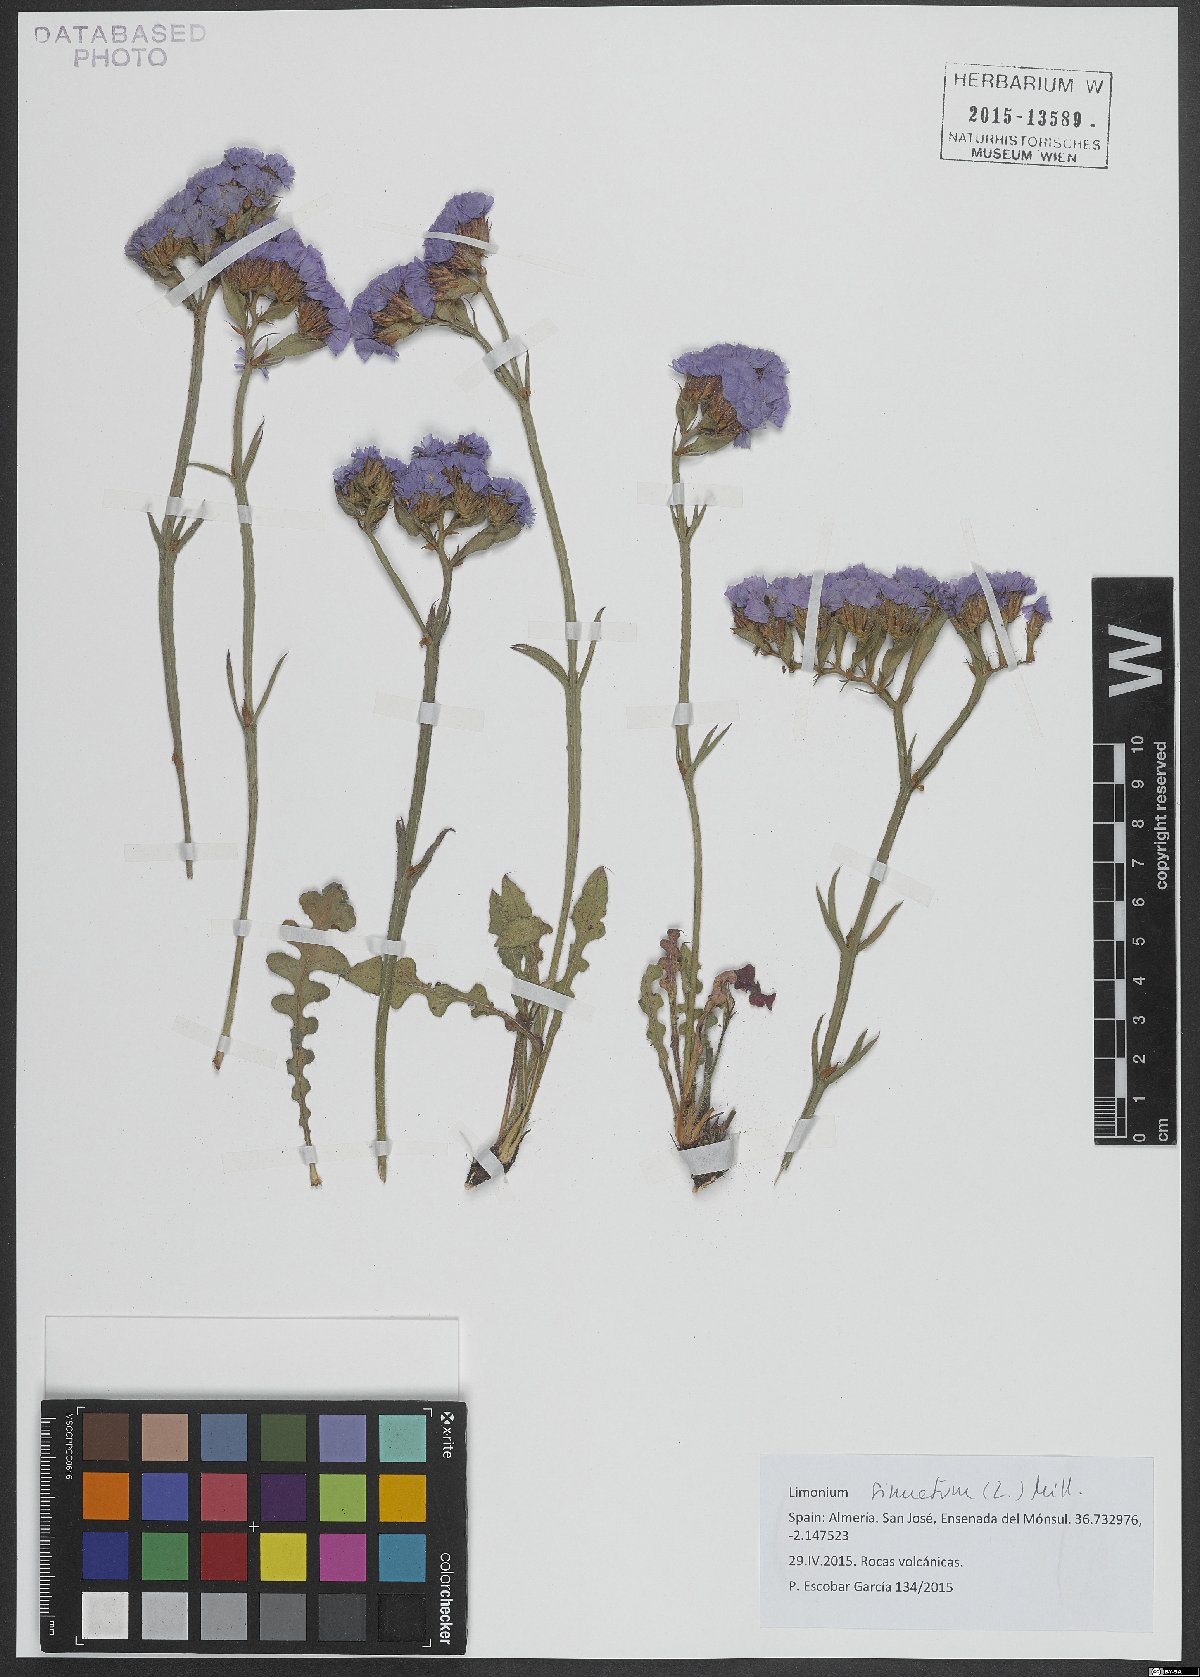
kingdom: Plantae
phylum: Tracheophyta
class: Magnoliopsida
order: Caryophyllales
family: Plumbaginaceae
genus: Limonium
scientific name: Limonium sinuatum
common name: Statice
